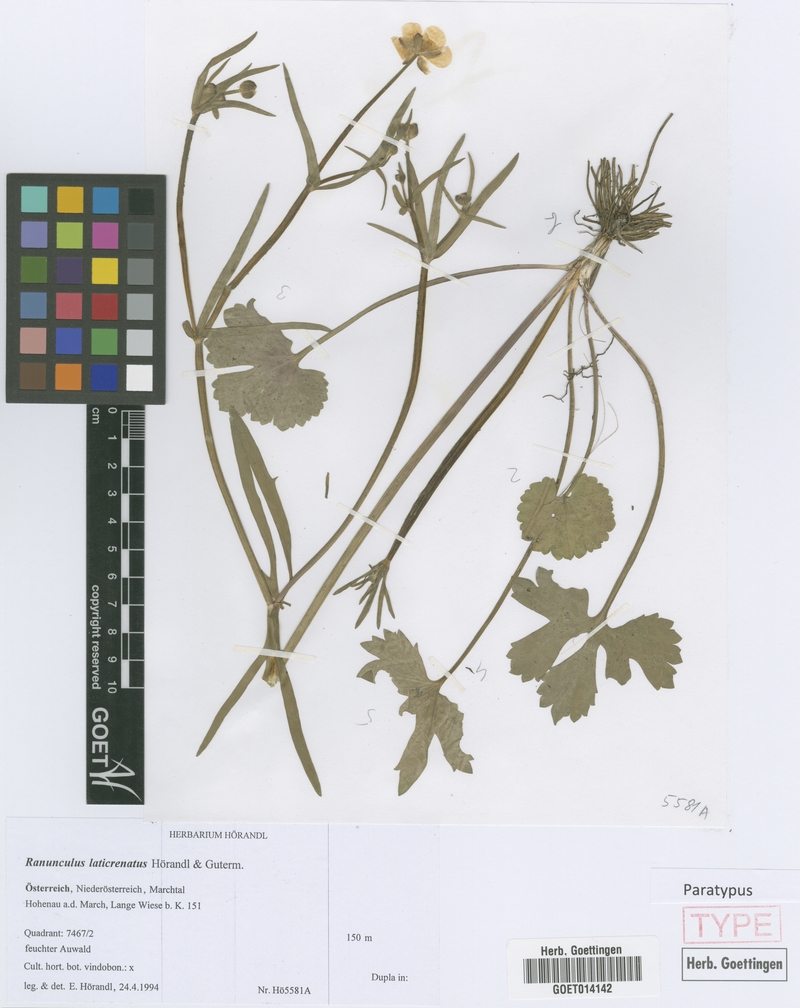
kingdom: Plantae
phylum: Tracheophyta
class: Magnoliopsida
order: Ranunculales
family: Ranunculaceae
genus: Ranunculus
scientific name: Ranunculus laticrenatus
